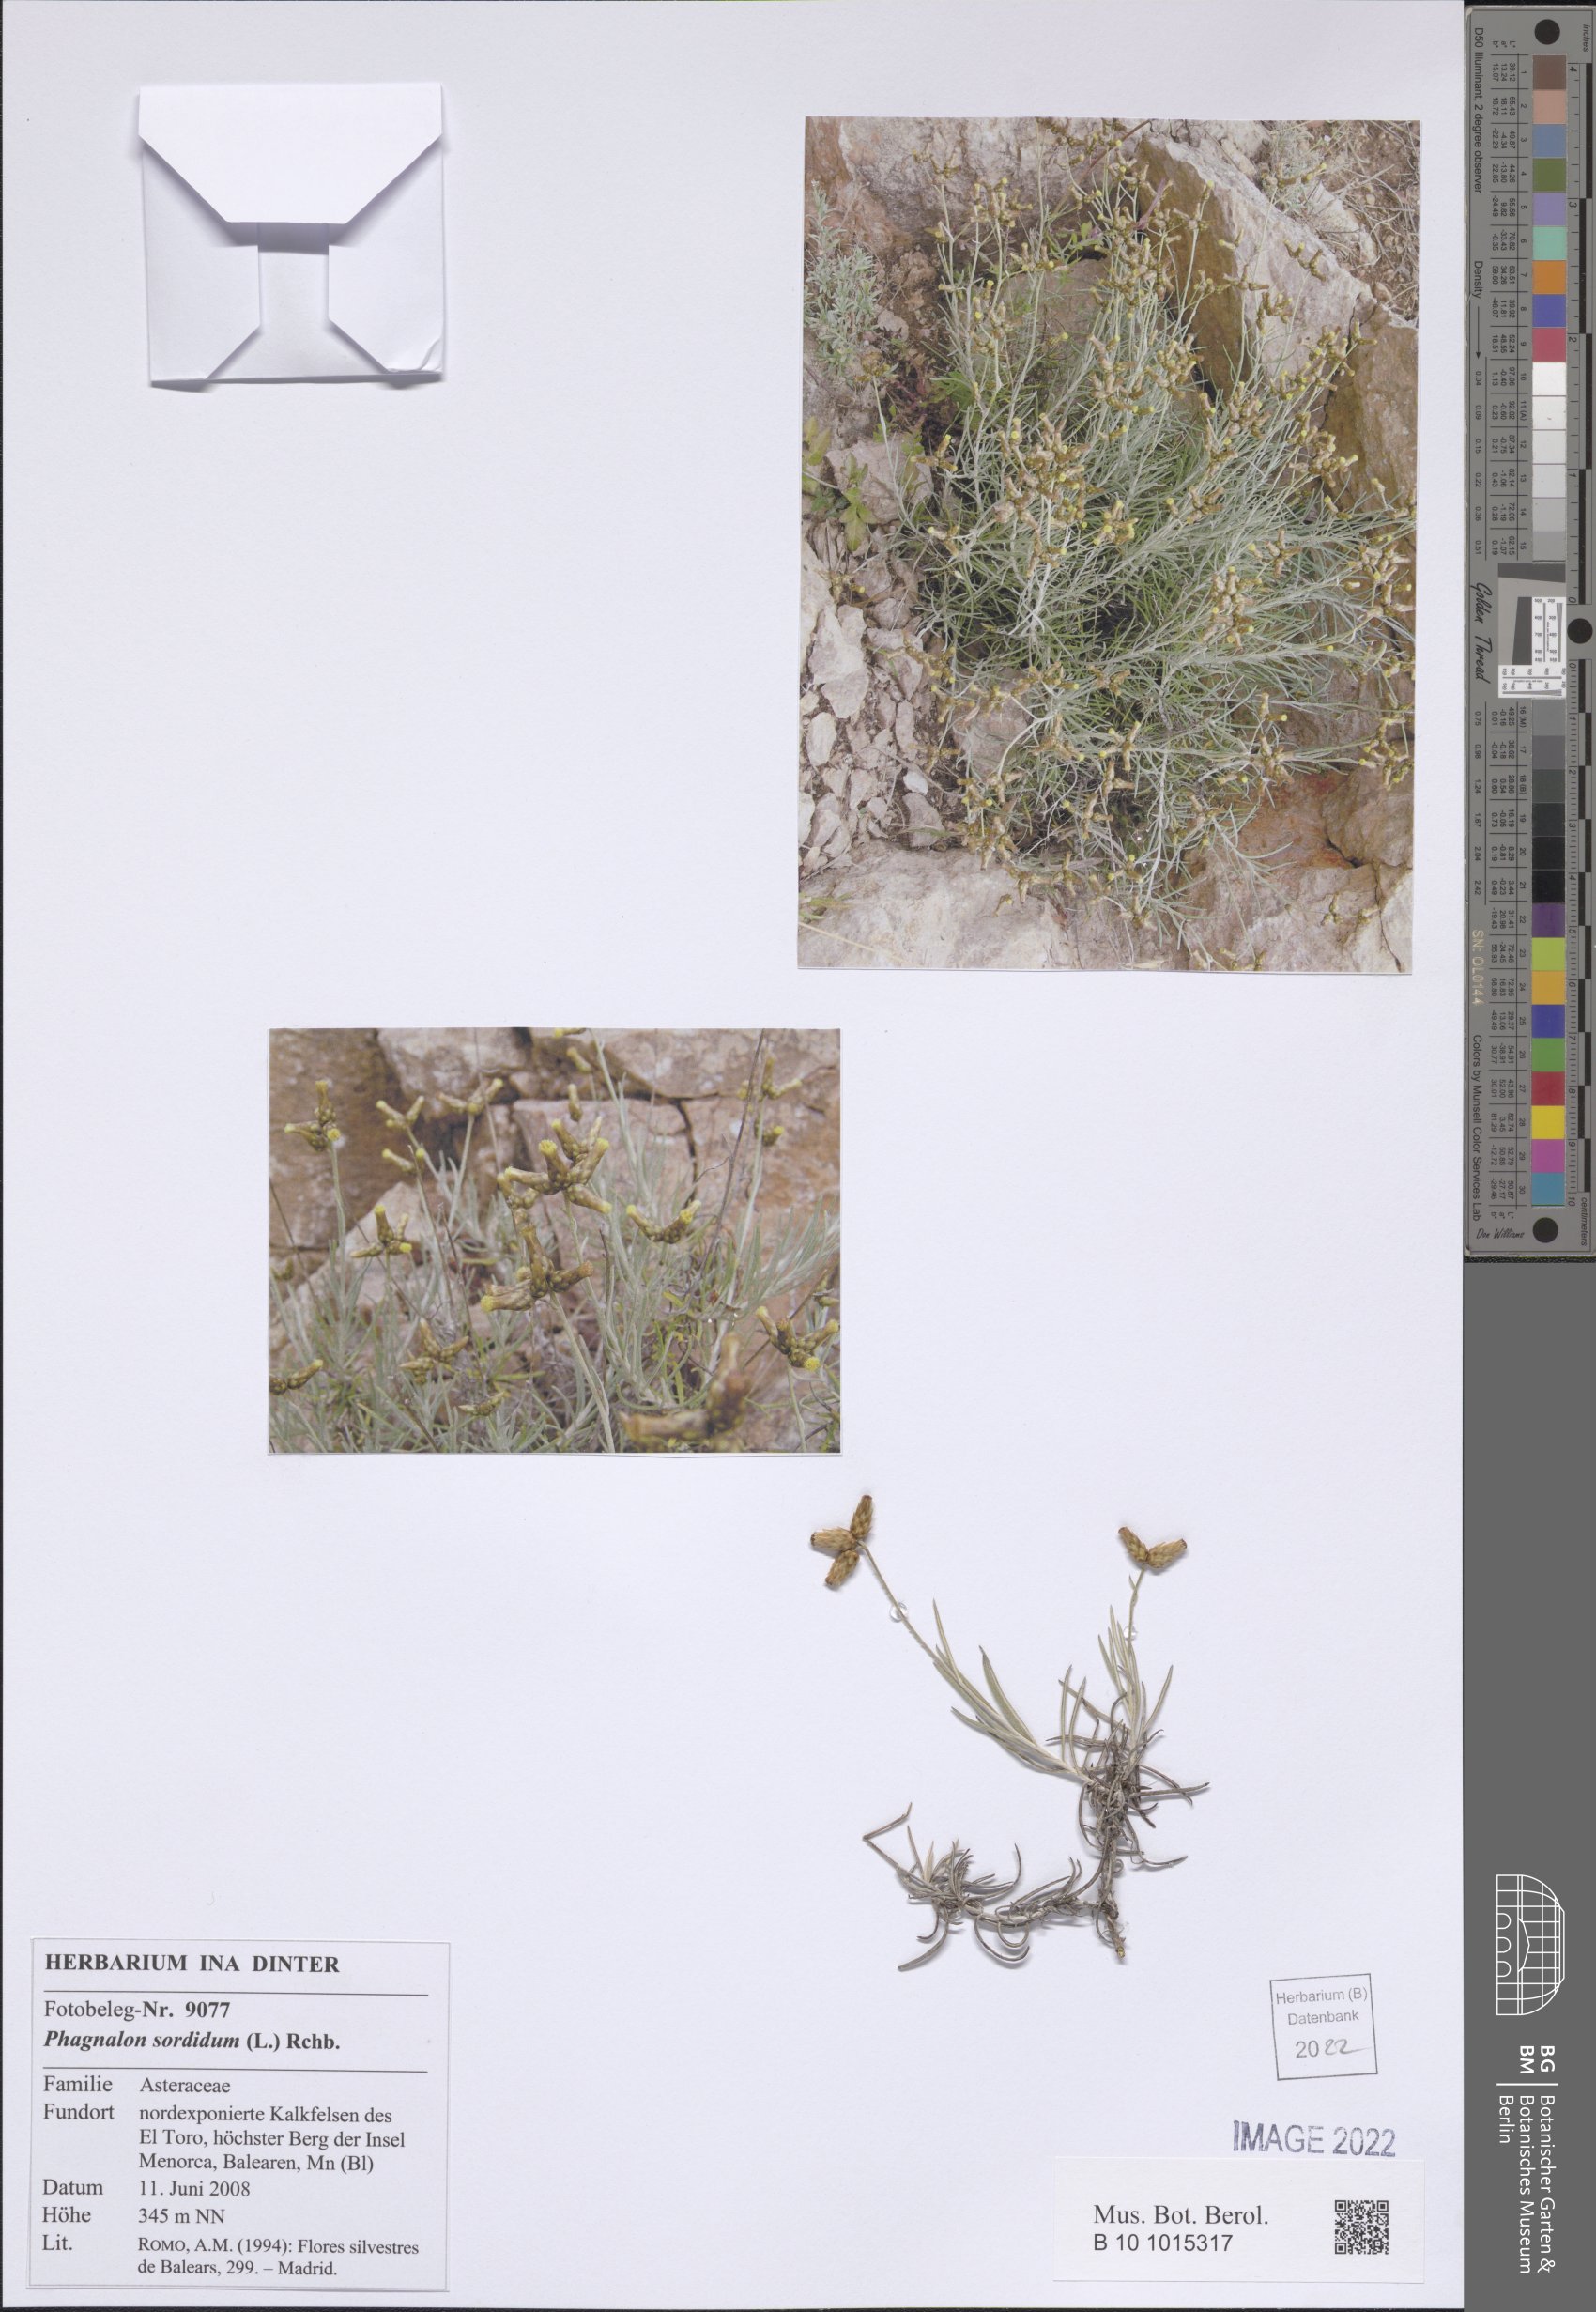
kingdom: Plantae
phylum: Tracheophyta
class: Magnoliopsida
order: Asterales
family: Asteraceae
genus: Phagnalon
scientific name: Phagnalon sordidum
